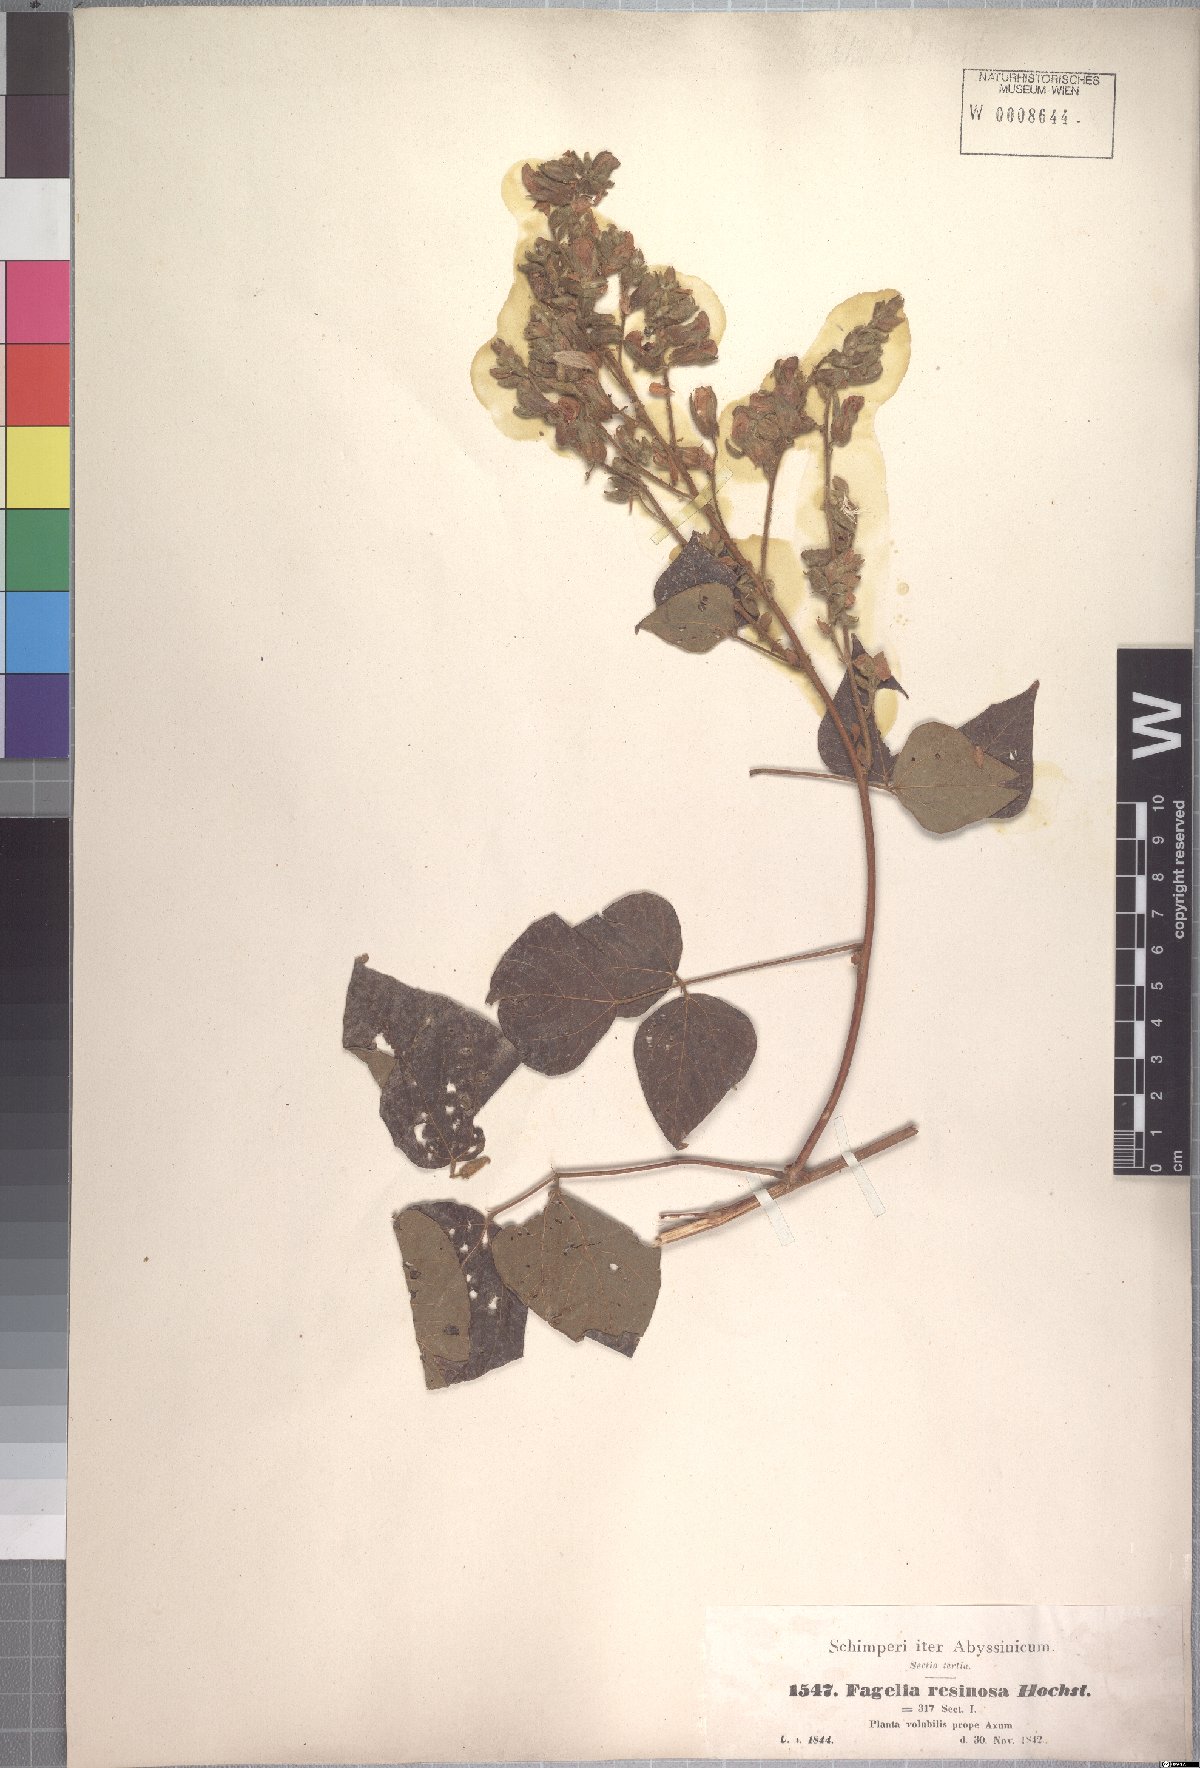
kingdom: Plantae
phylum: Tracheophyta
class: Magnoliopsida
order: Fabales
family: Fabaceae
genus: Rhynchosia
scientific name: Rhynchosia resinosa
